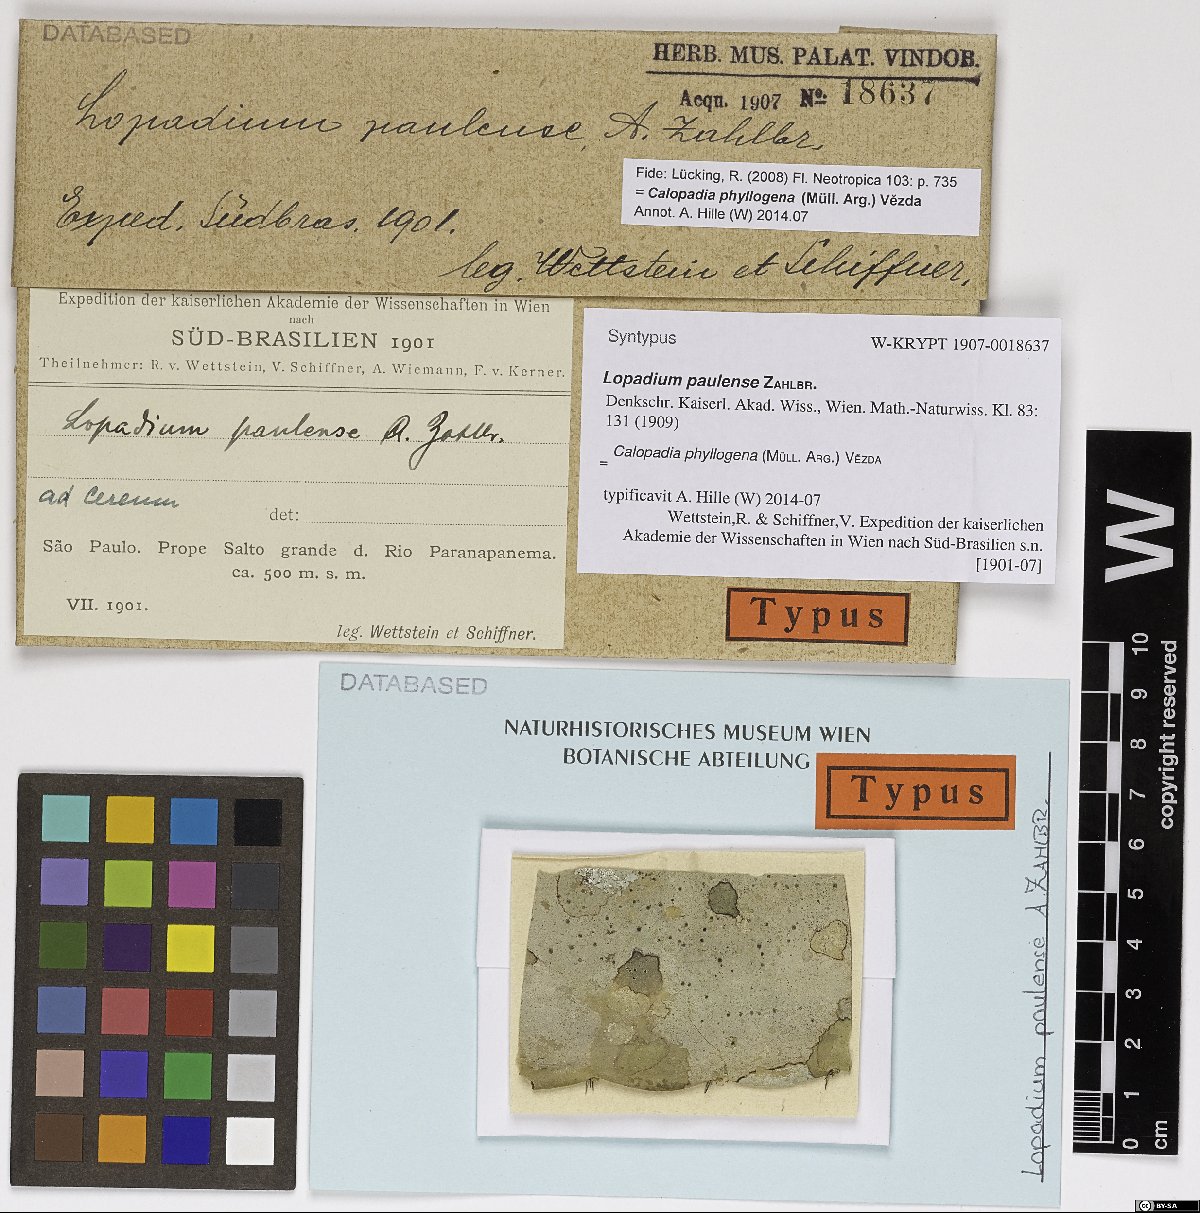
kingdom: Fungi
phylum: Ascomycota
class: Lecanoromycetes
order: Lecanorales
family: Pilocarpaceae
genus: Lopadium
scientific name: Lopadium paulense
